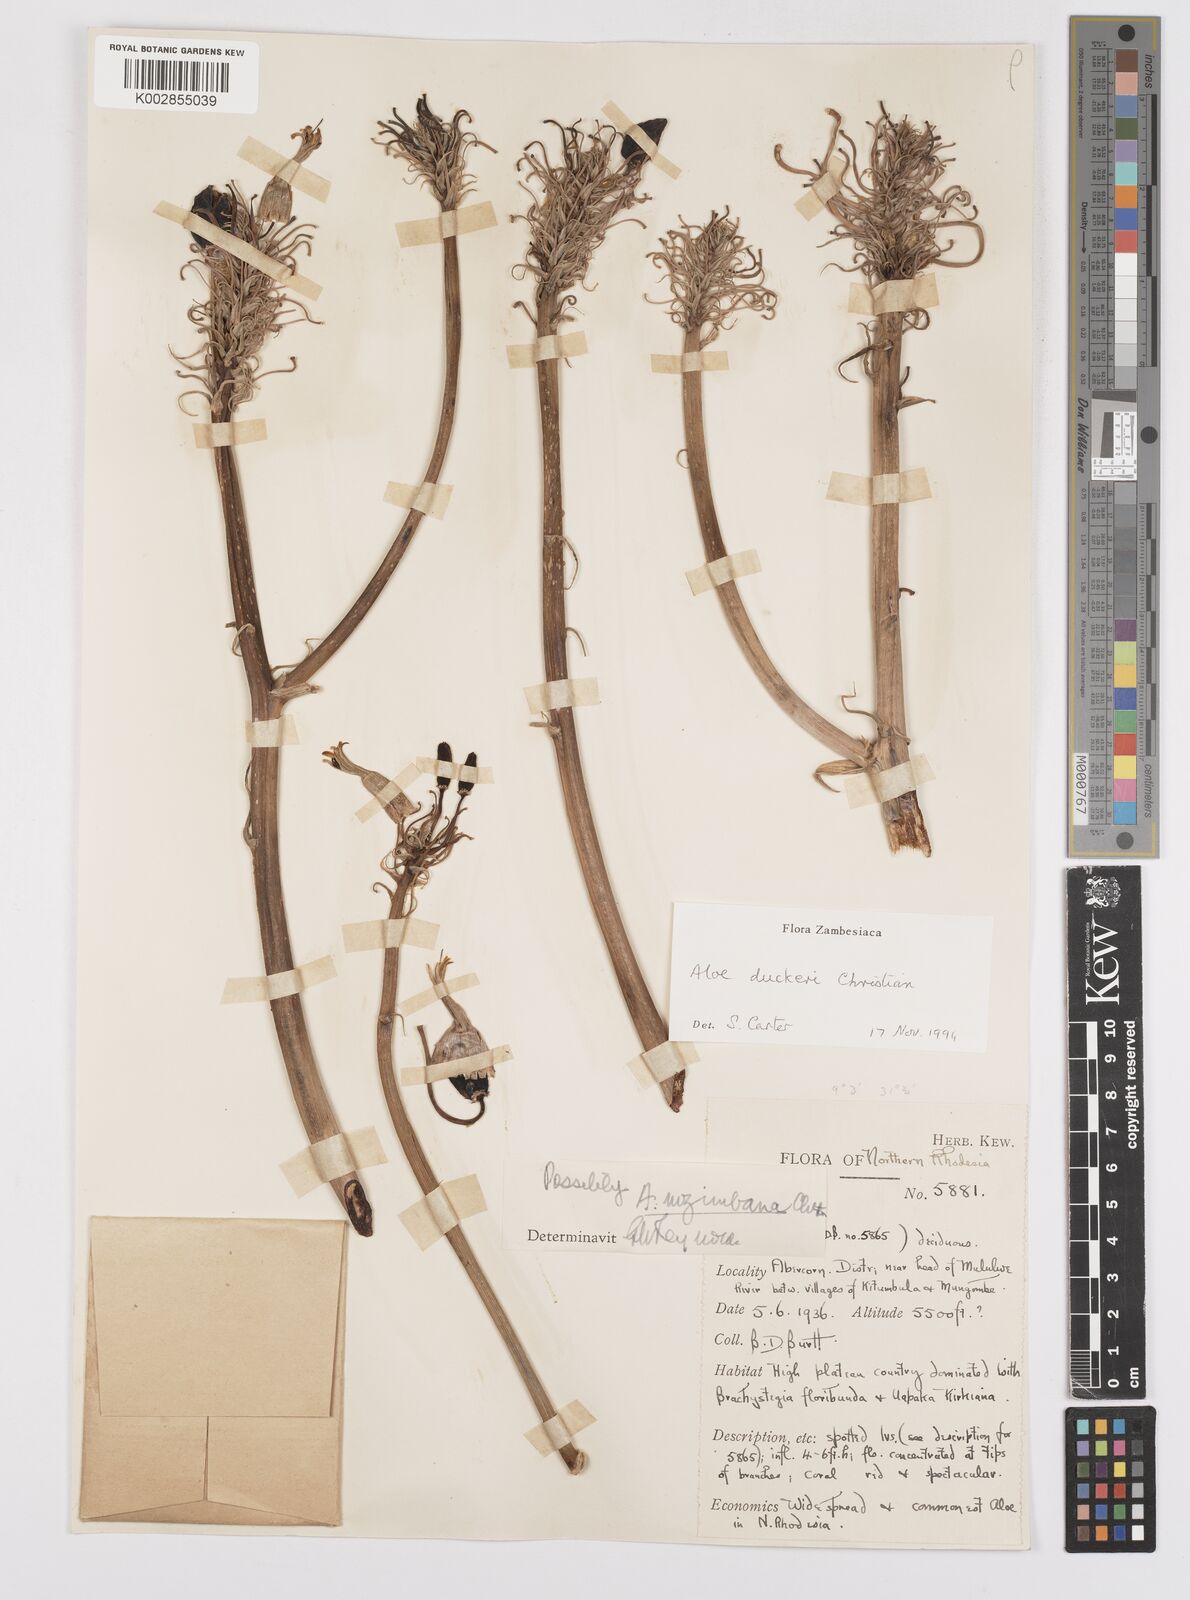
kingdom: Plantae
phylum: Tracheophyta
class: Liliopsida
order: Asparagales
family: Asphodelaceae
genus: Aloe
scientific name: Aloe duckeri
